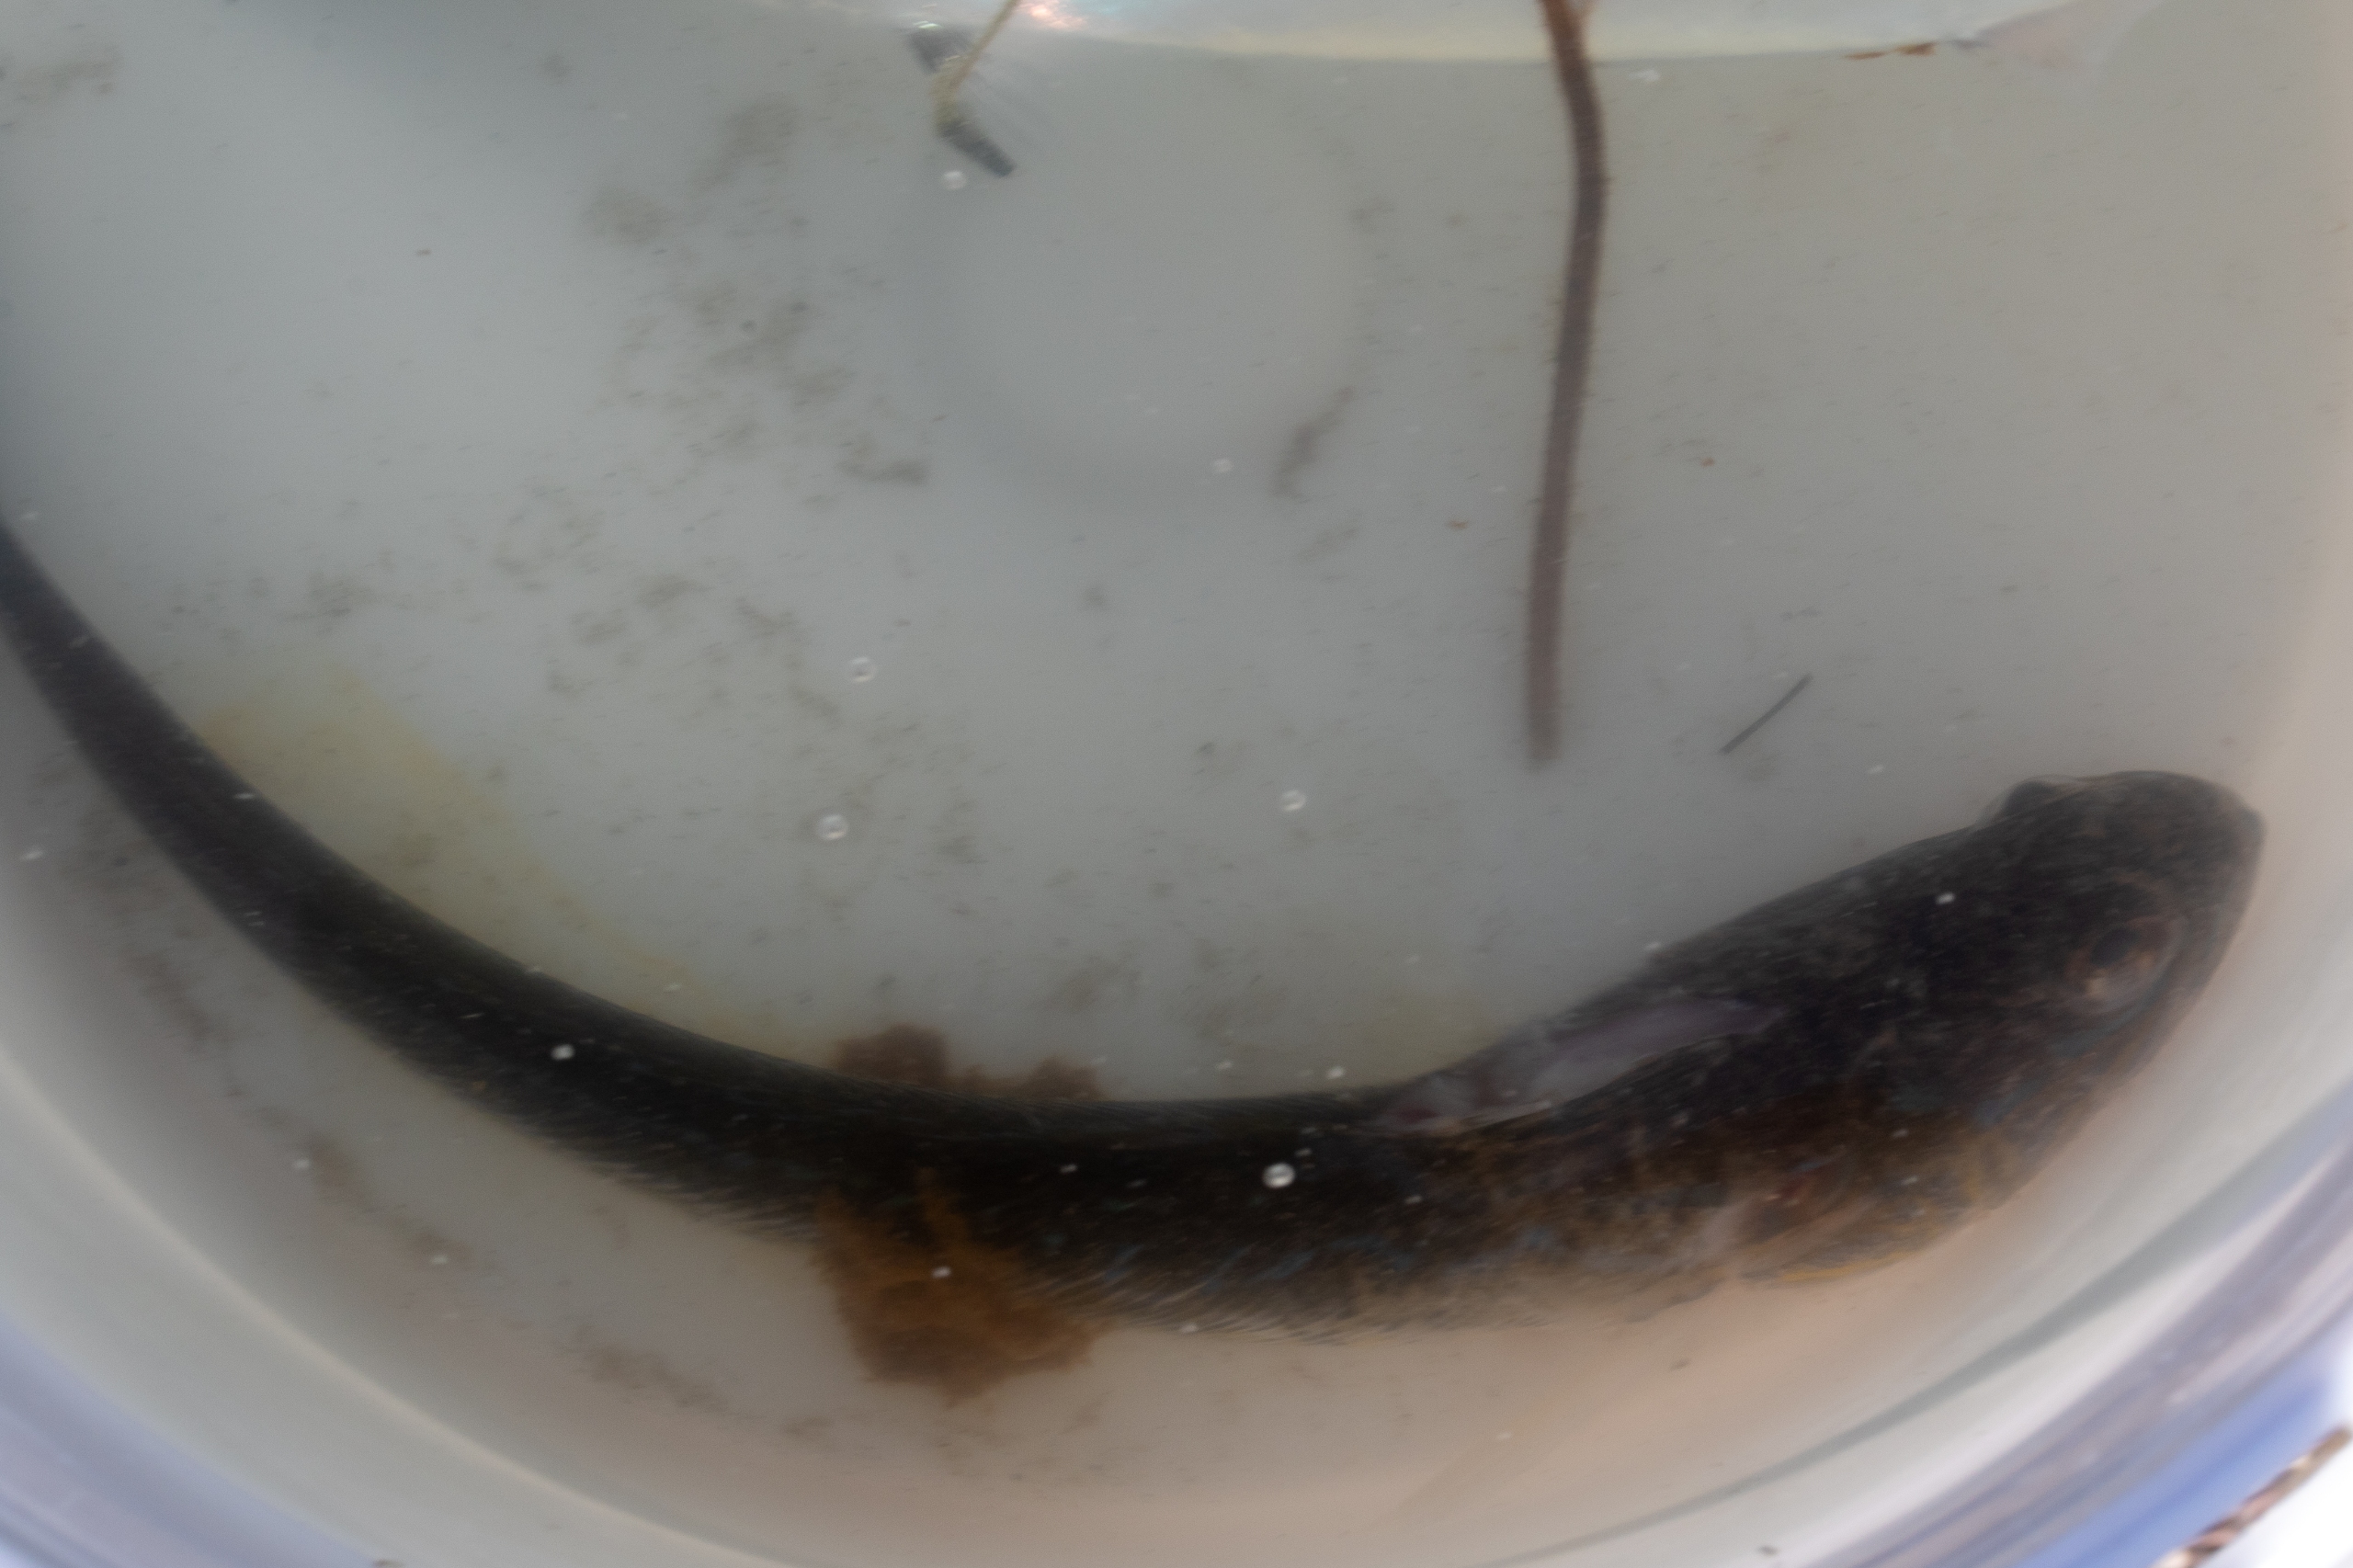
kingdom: Animalia
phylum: Chordata
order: Perciformes
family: Trachinidae
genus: Trachinus
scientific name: Trachinus draco
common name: Almindelig fjæsing
